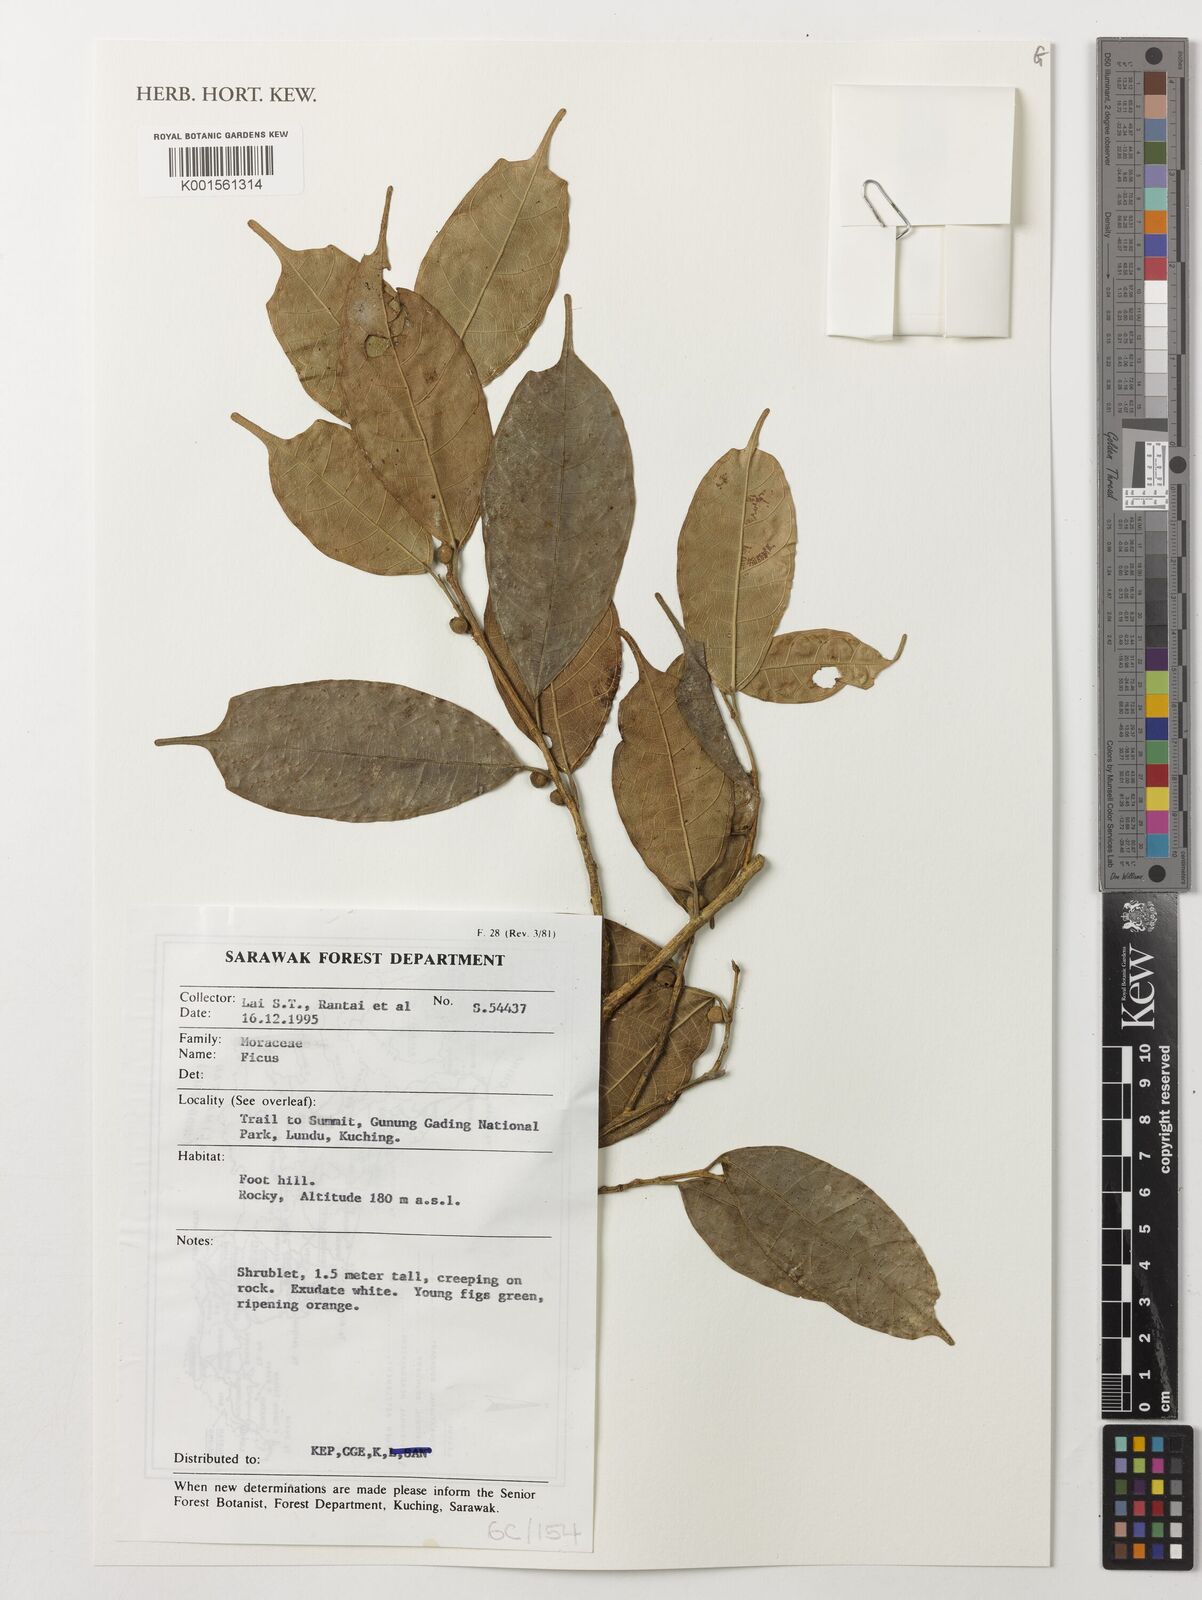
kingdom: Plantae
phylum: Tracheophyta
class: Magnoliopsida
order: Rosales
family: Moraceae
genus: Ficus
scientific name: Ficus
